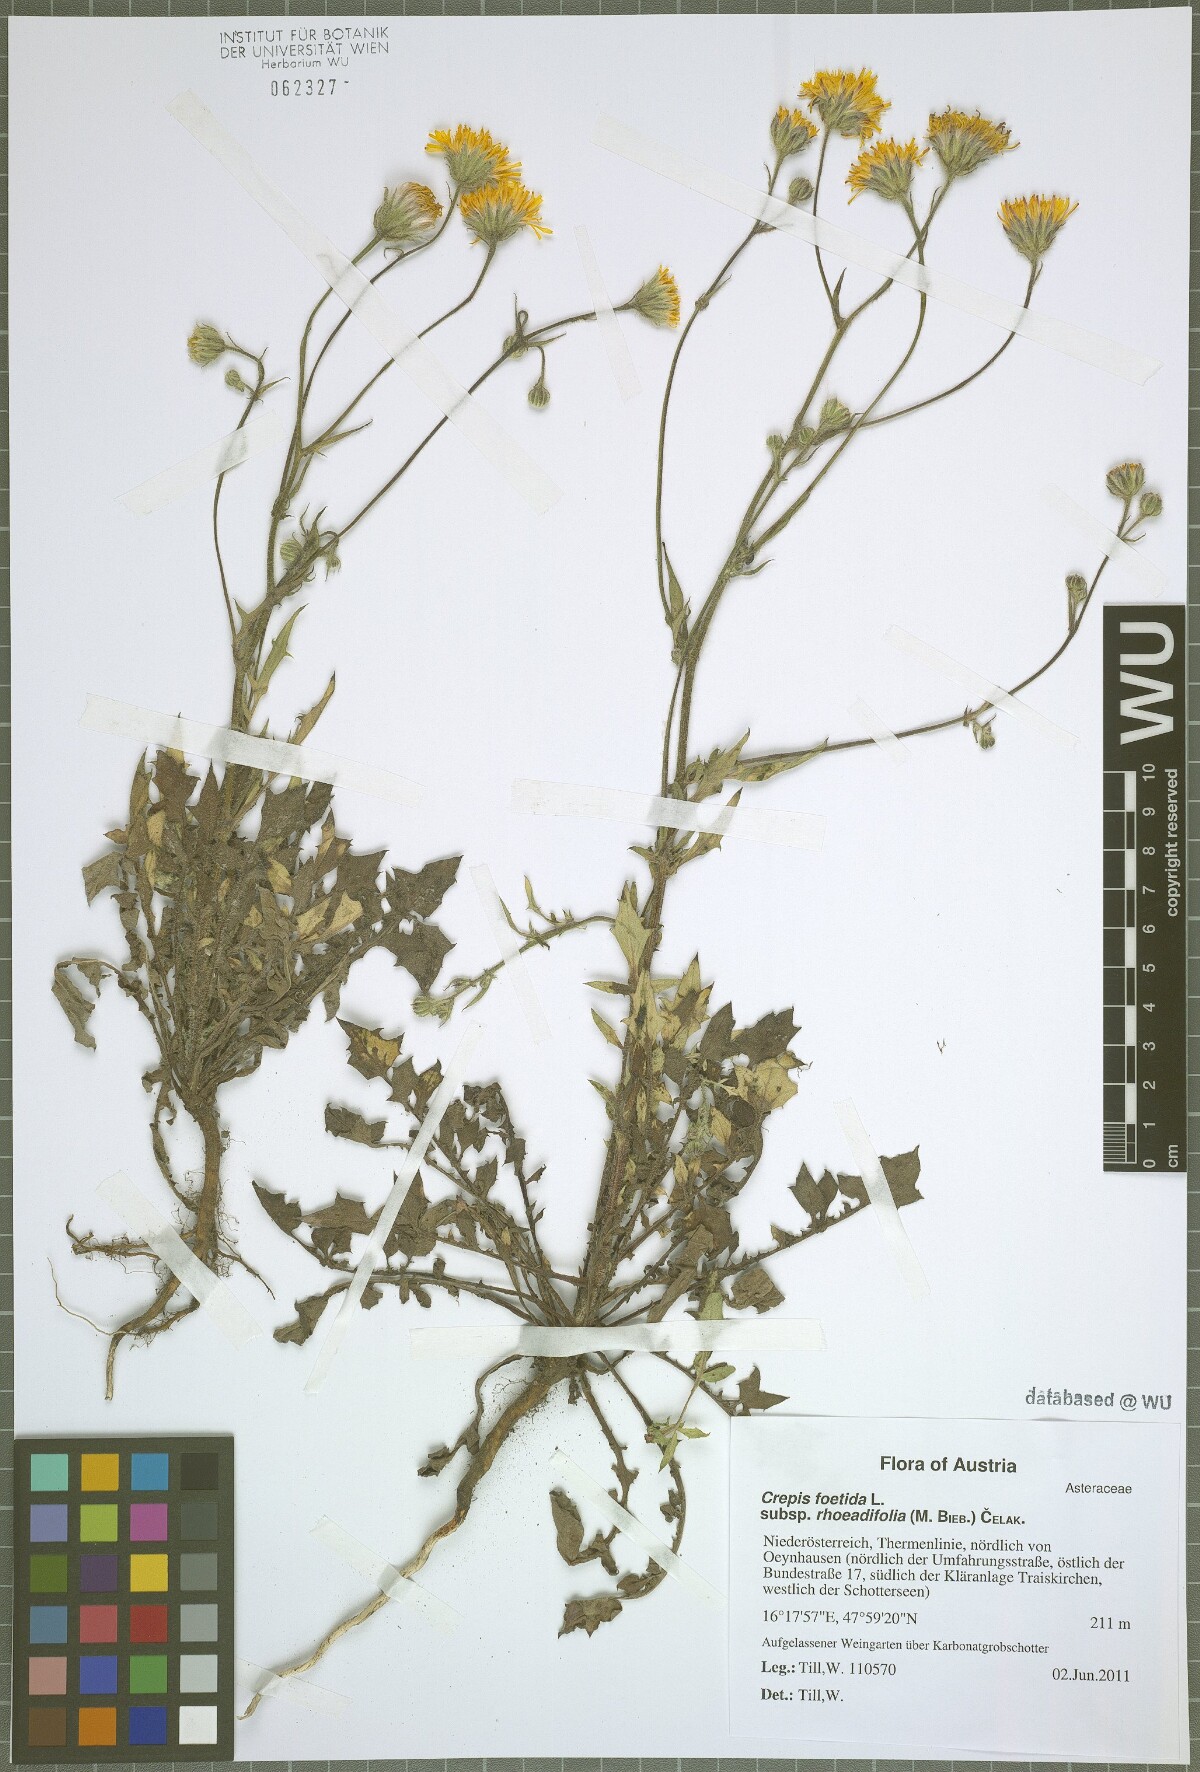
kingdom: Plantae
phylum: Tracheophyta
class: Magnoliopsida
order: Asterales
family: Asteraceae
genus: Crepis
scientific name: Crepis foetida
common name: Stinking hawk's-beard
